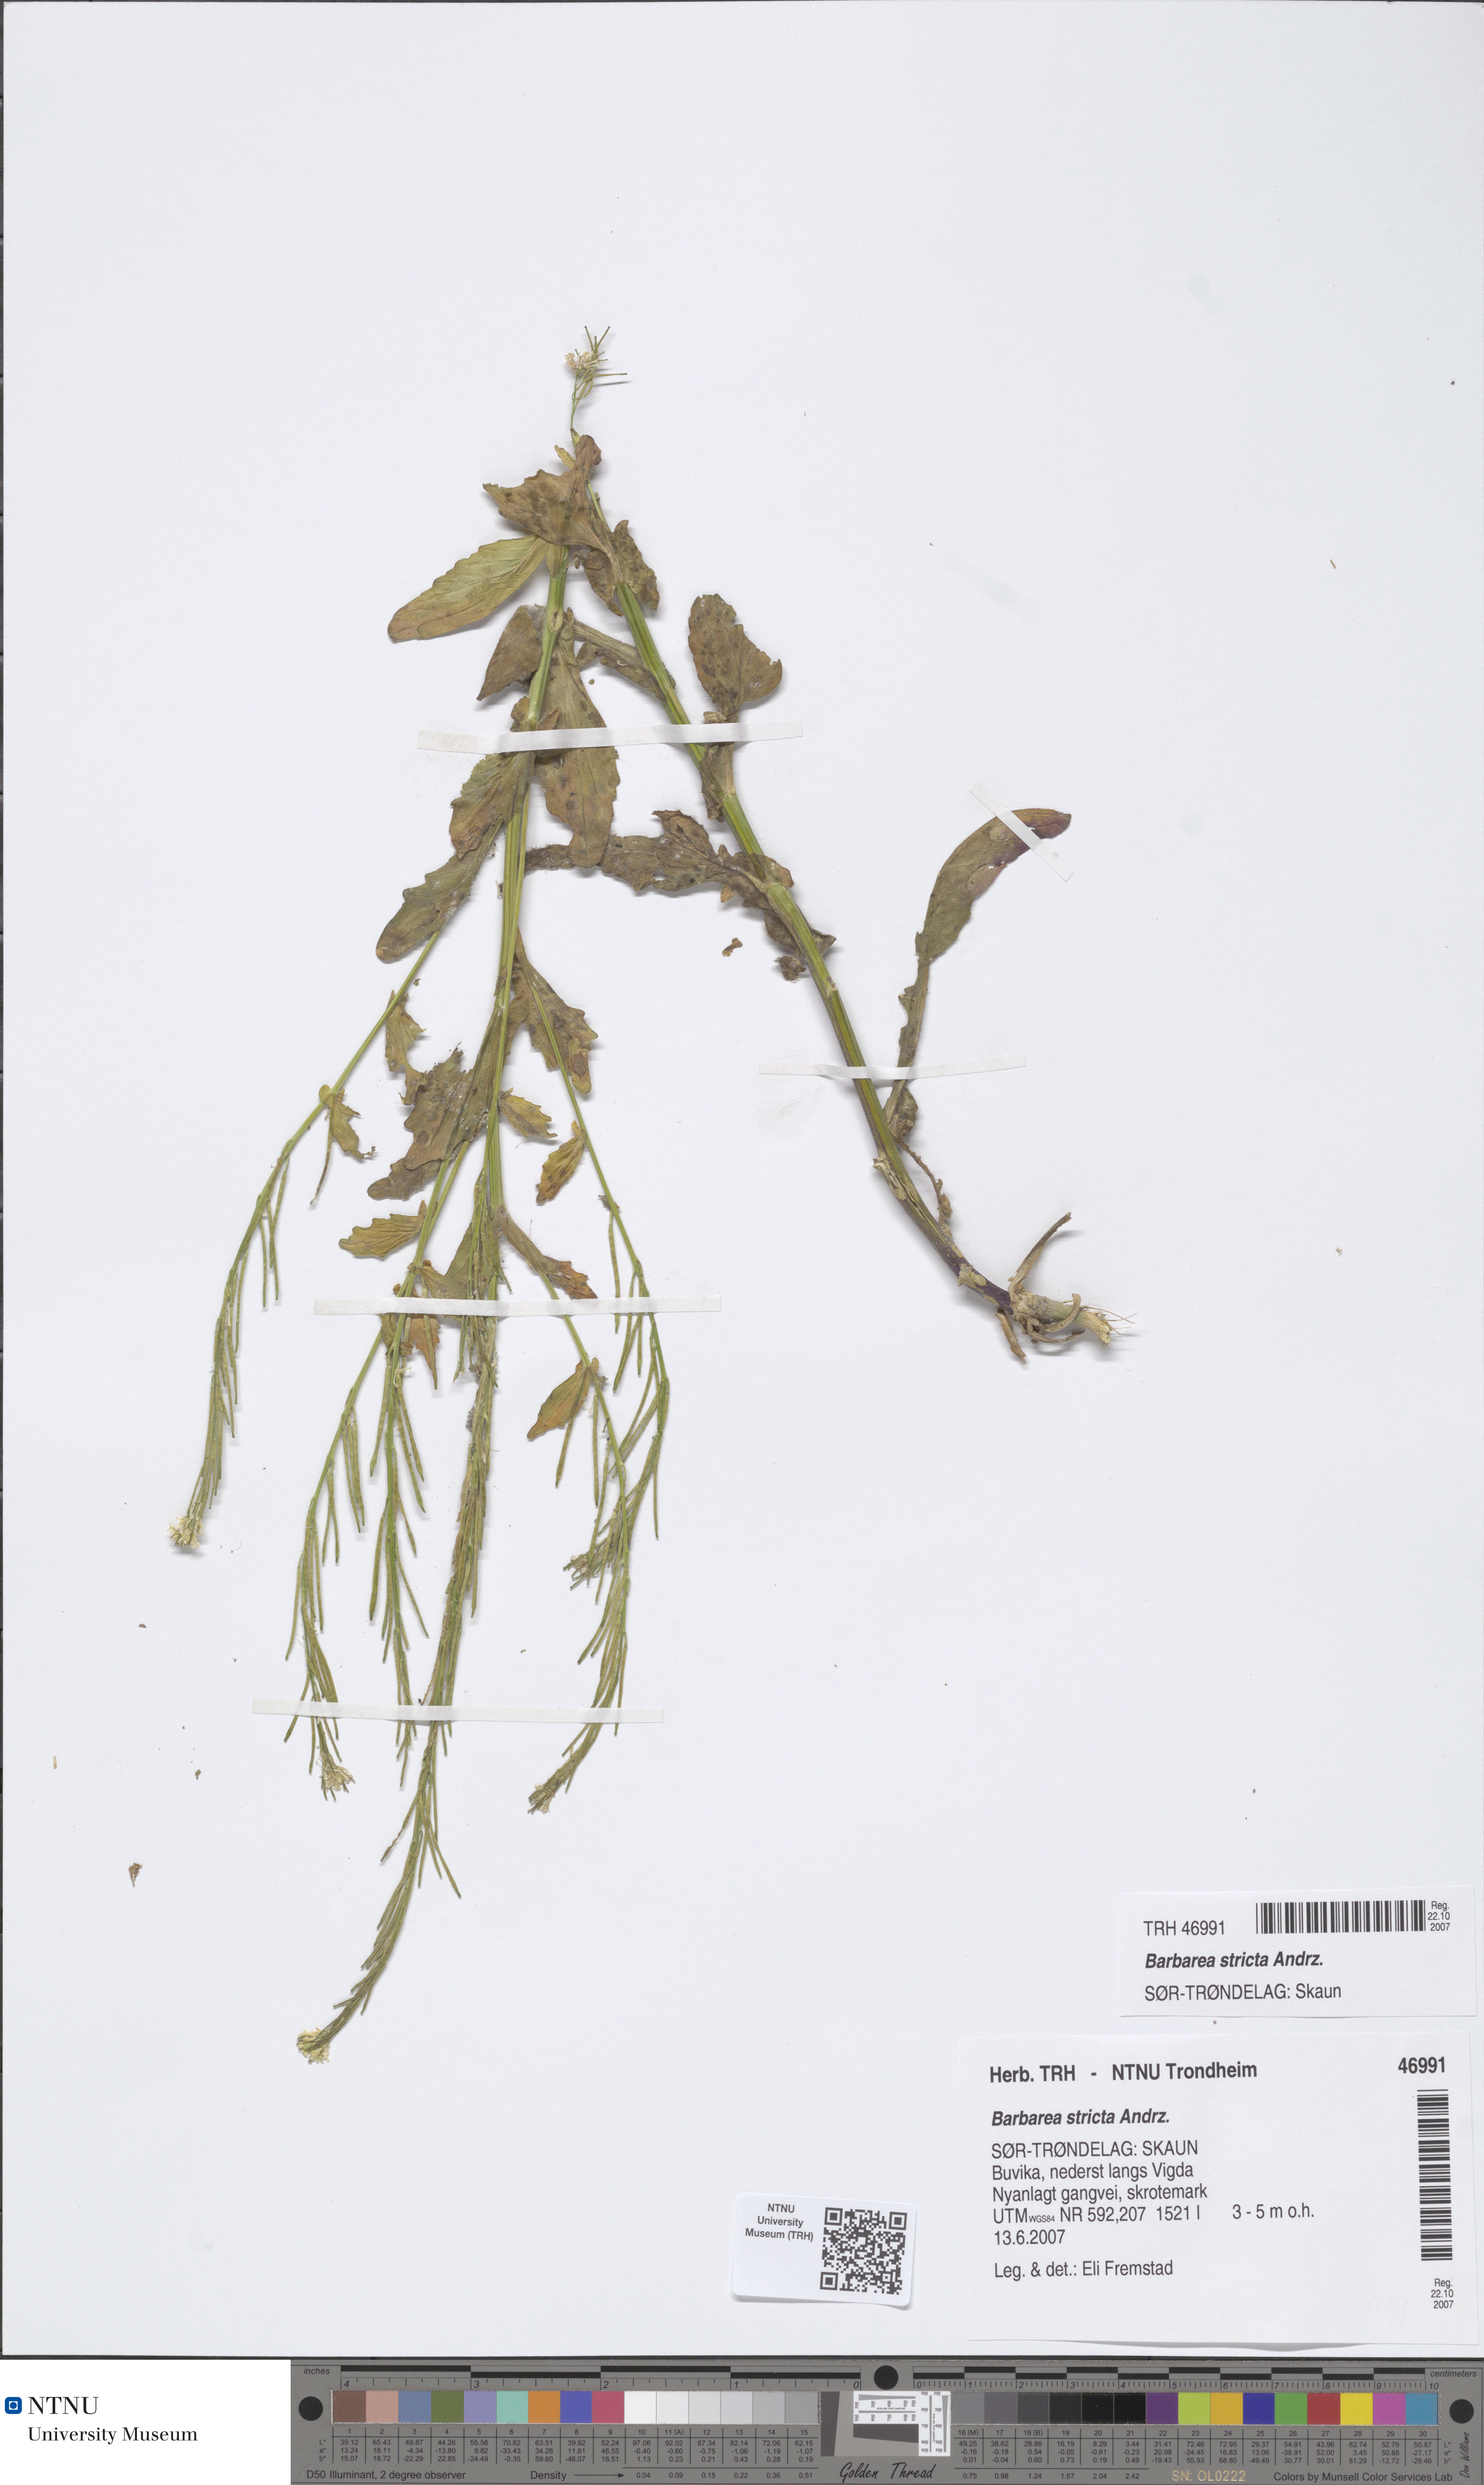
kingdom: Plantae
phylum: Tracheophyta
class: Magnoliopsida
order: Brassicales
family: Brassicaceae
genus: Barbarea
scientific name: Barbarea stricta
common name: Small-flowered winter-cress
